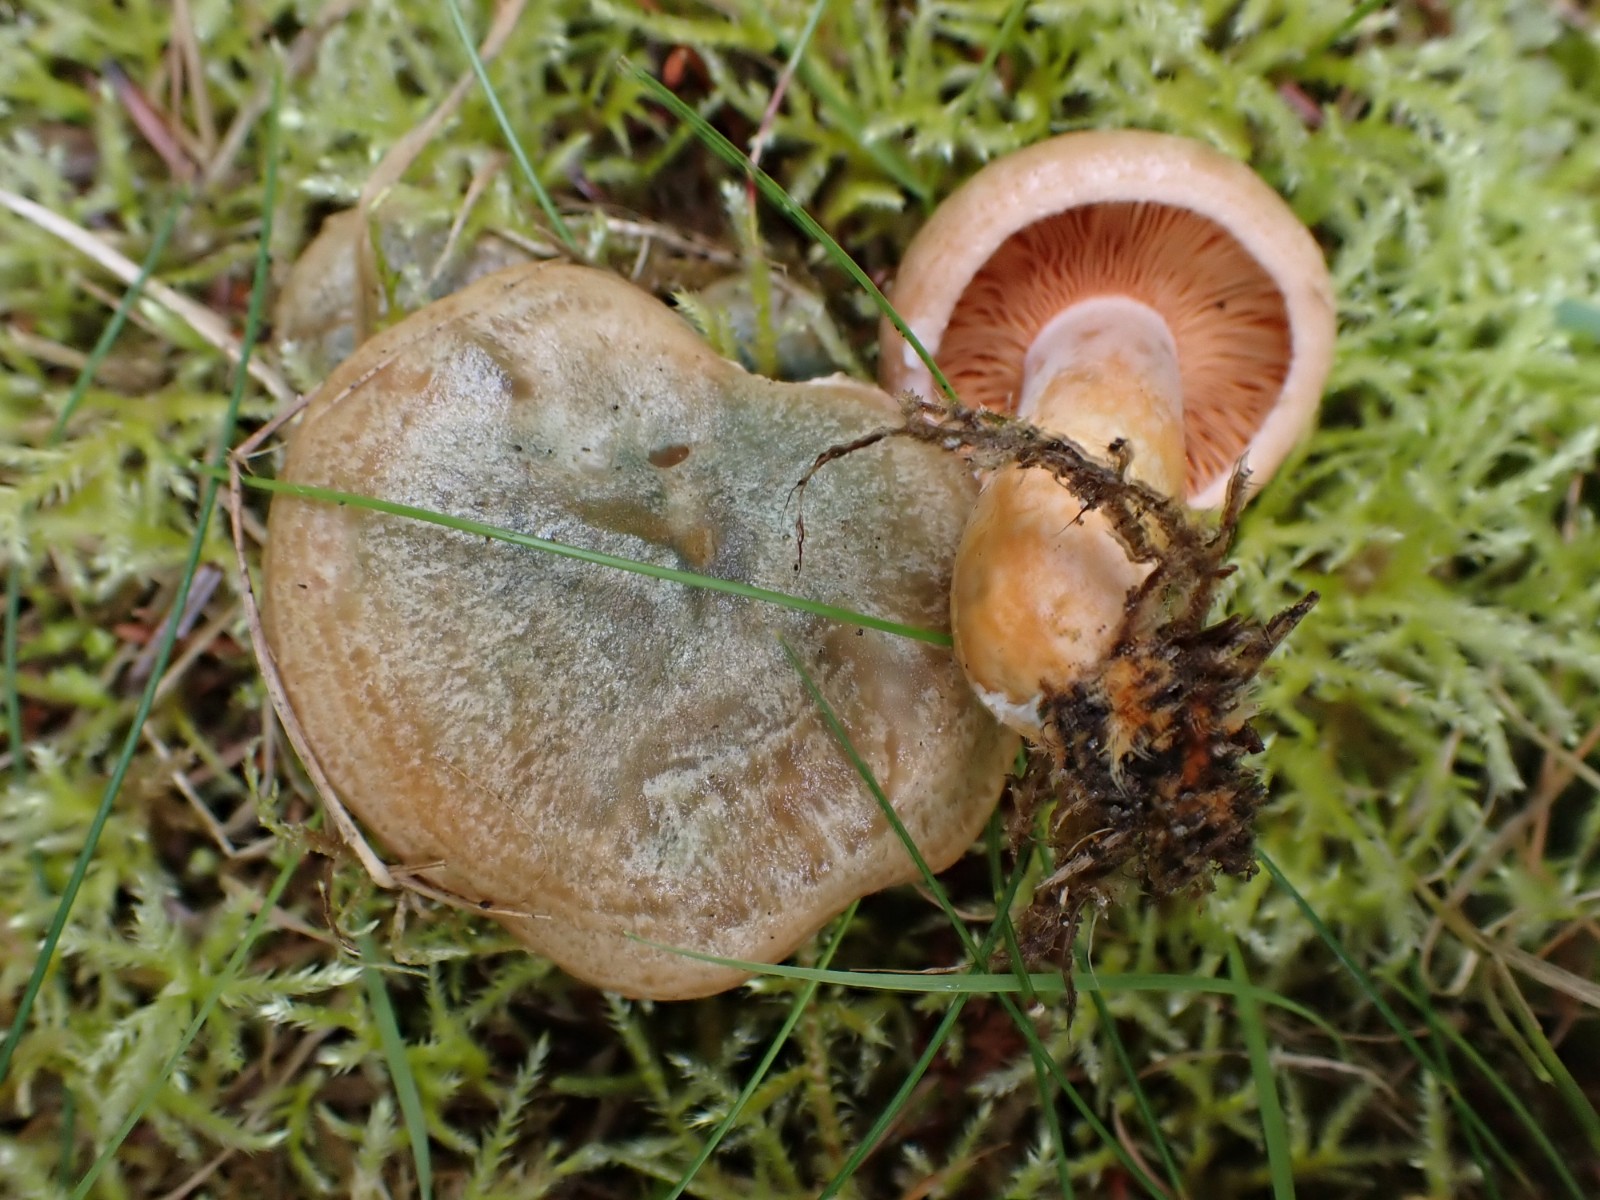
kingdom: Fungi
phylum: Basidiomycota
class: Agaricomycetes
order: Russulales
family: Russulaceae
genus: Lactarius
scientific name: Lactarius deterrimus
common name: gran-mælkehat
